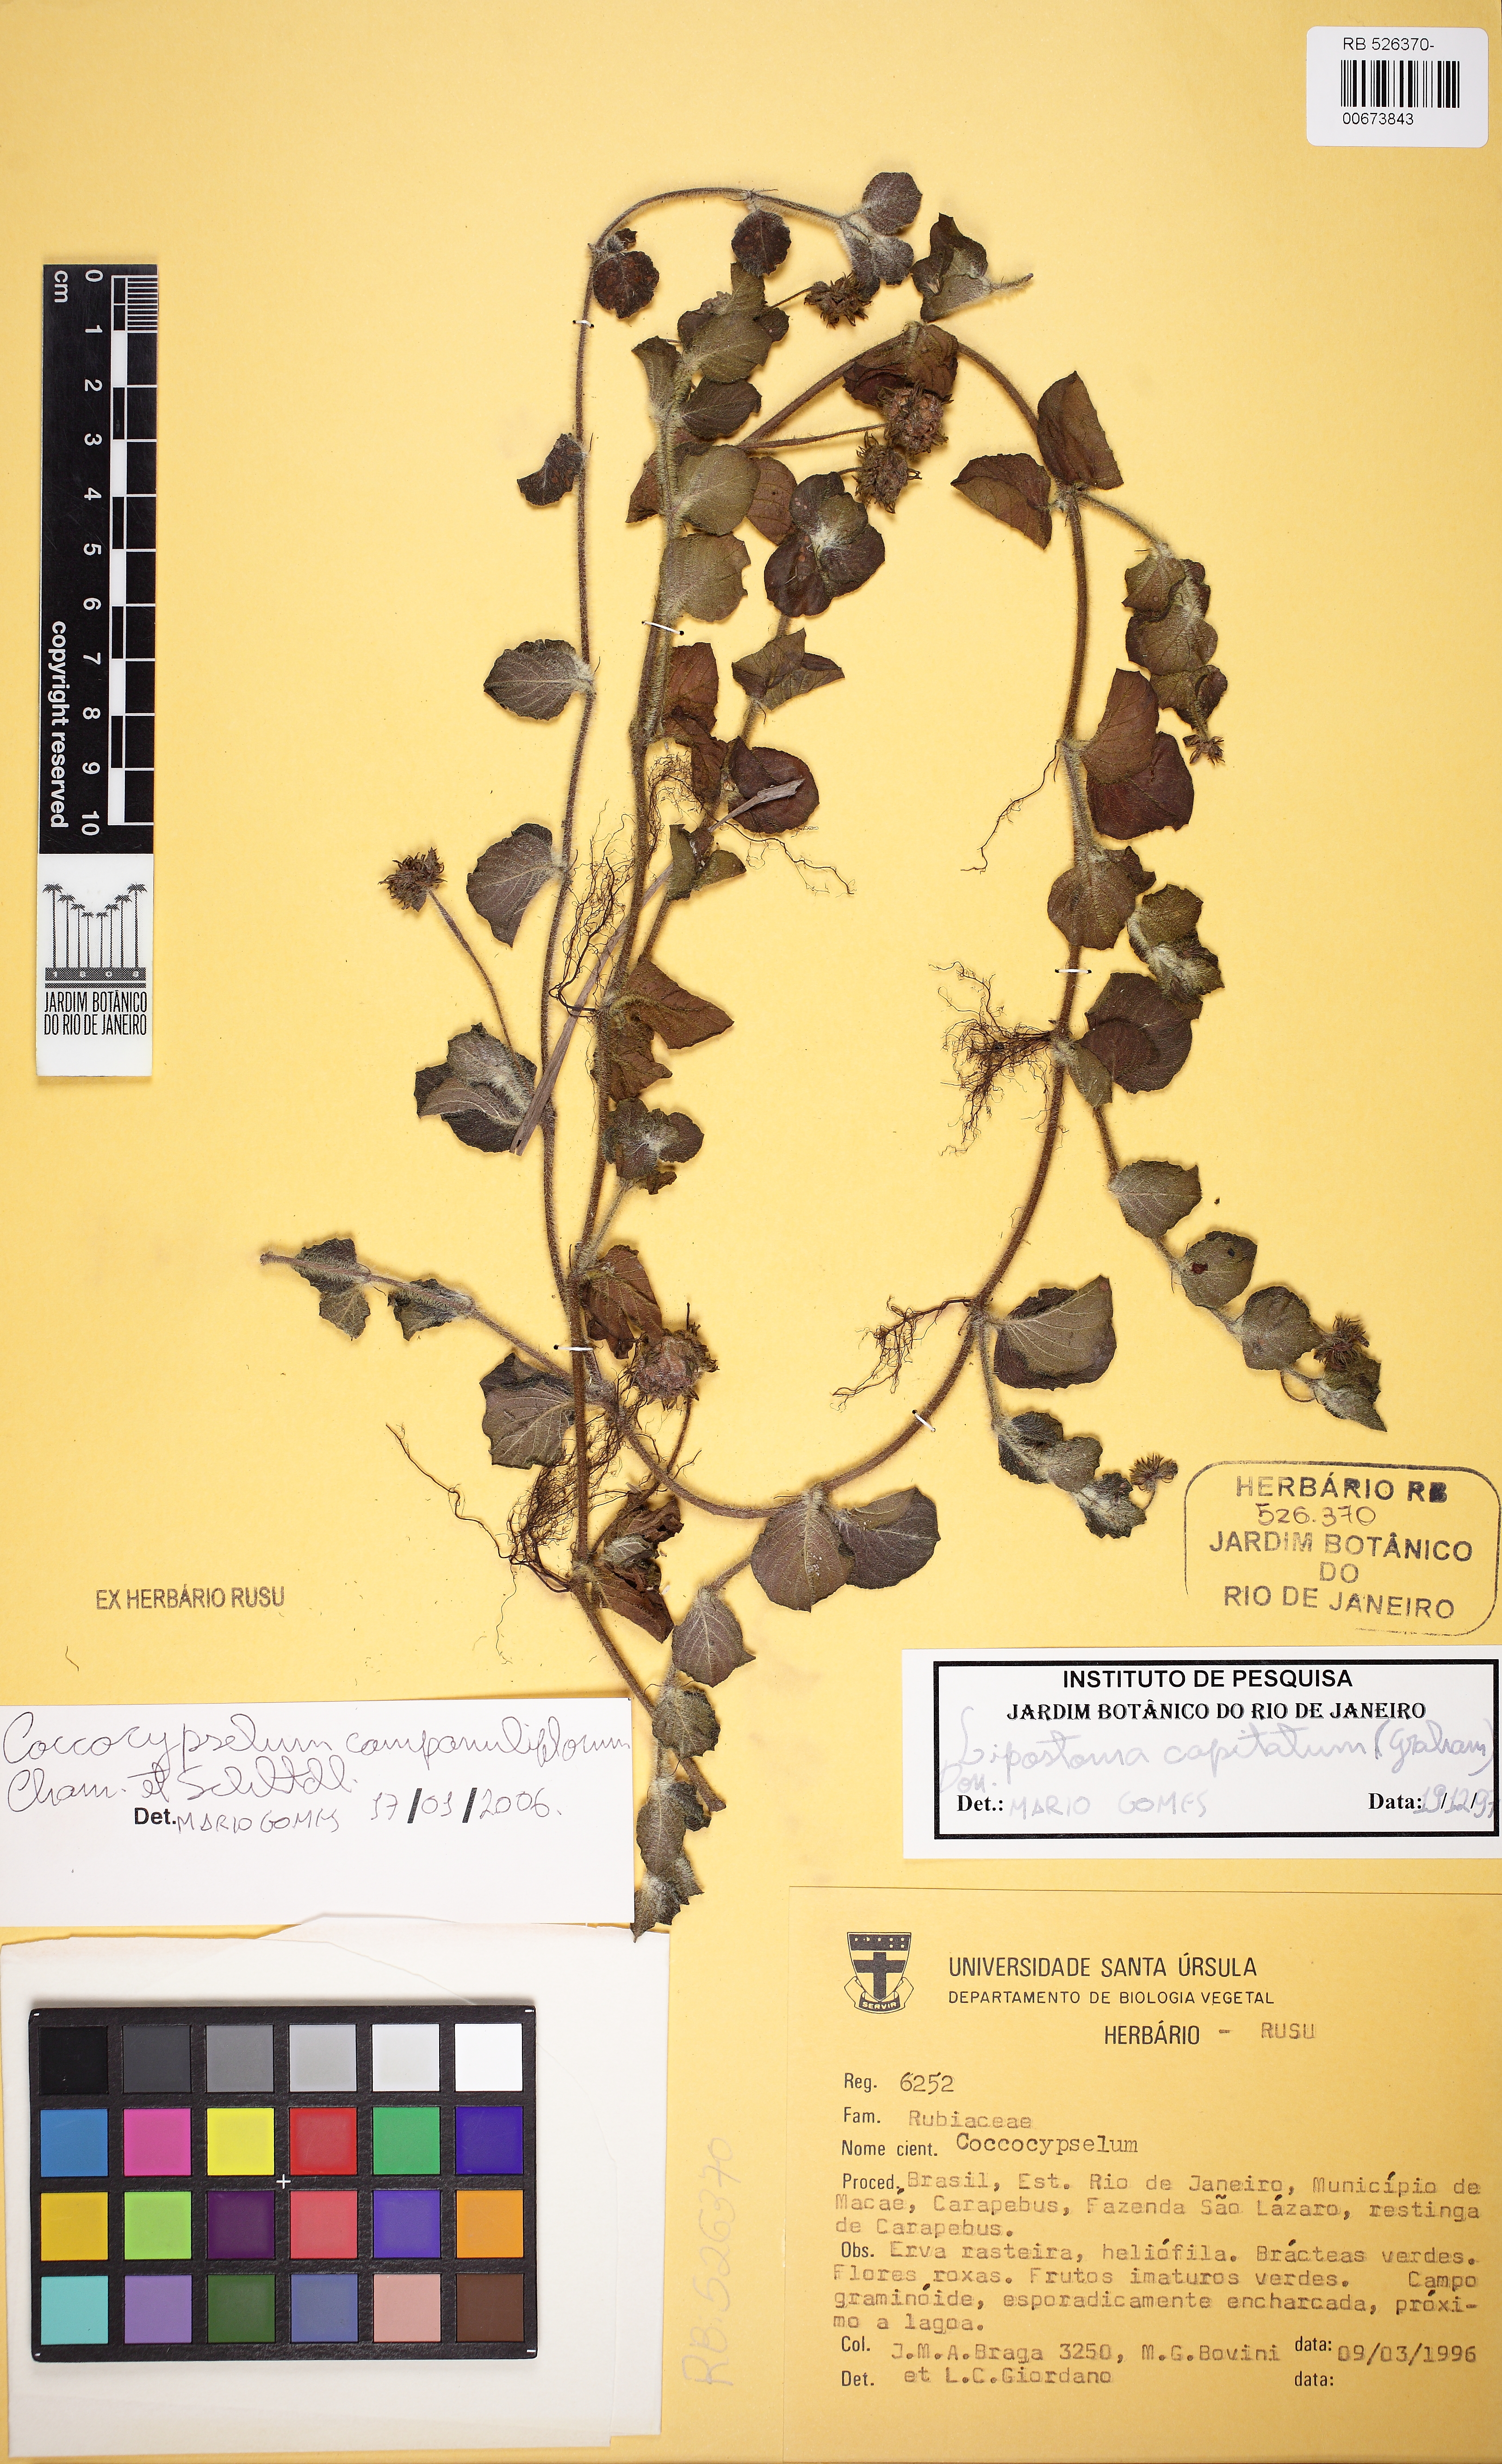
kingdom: Plantae
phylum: Tracheophyta
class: Magnoliopsida
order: Gentianales
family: Rubiaceae
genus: Coccocypselum
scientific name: Coccocypselum capitatum
